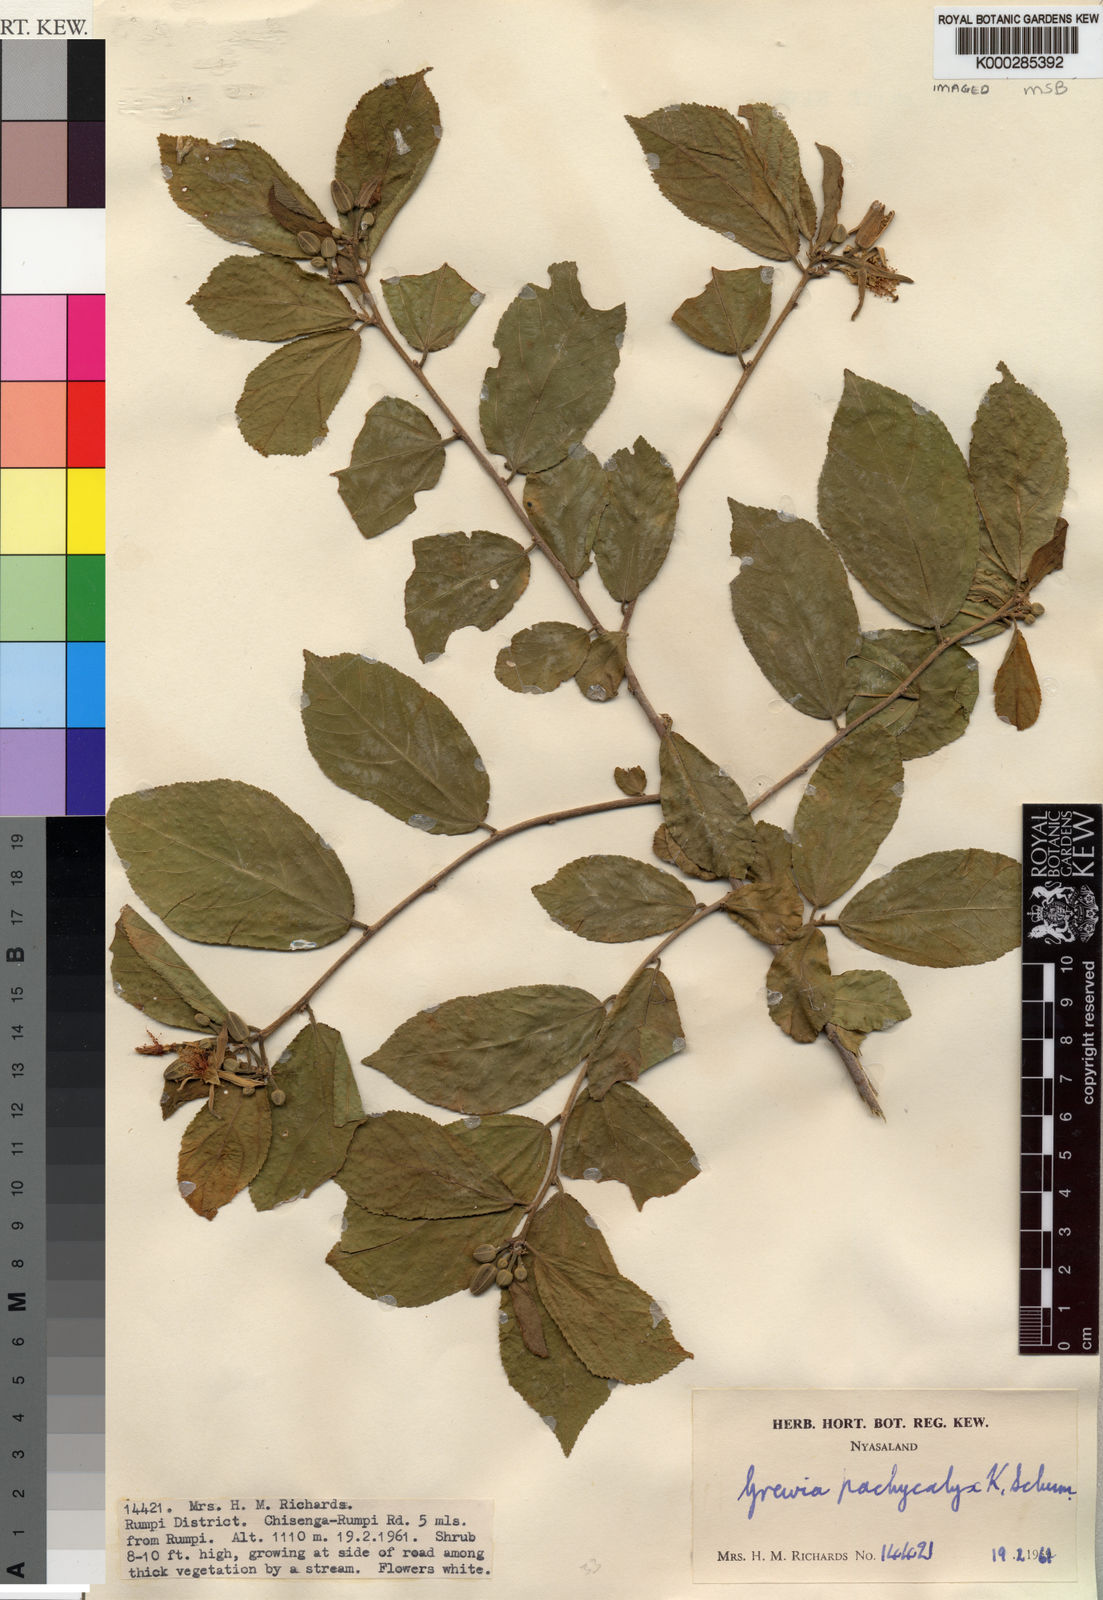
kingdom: Plantae
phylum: Tracheophyta
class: Magnoliopsida
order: Malvales
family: Malvaceae
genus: Grewia
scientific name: Grewia pachycalyx
